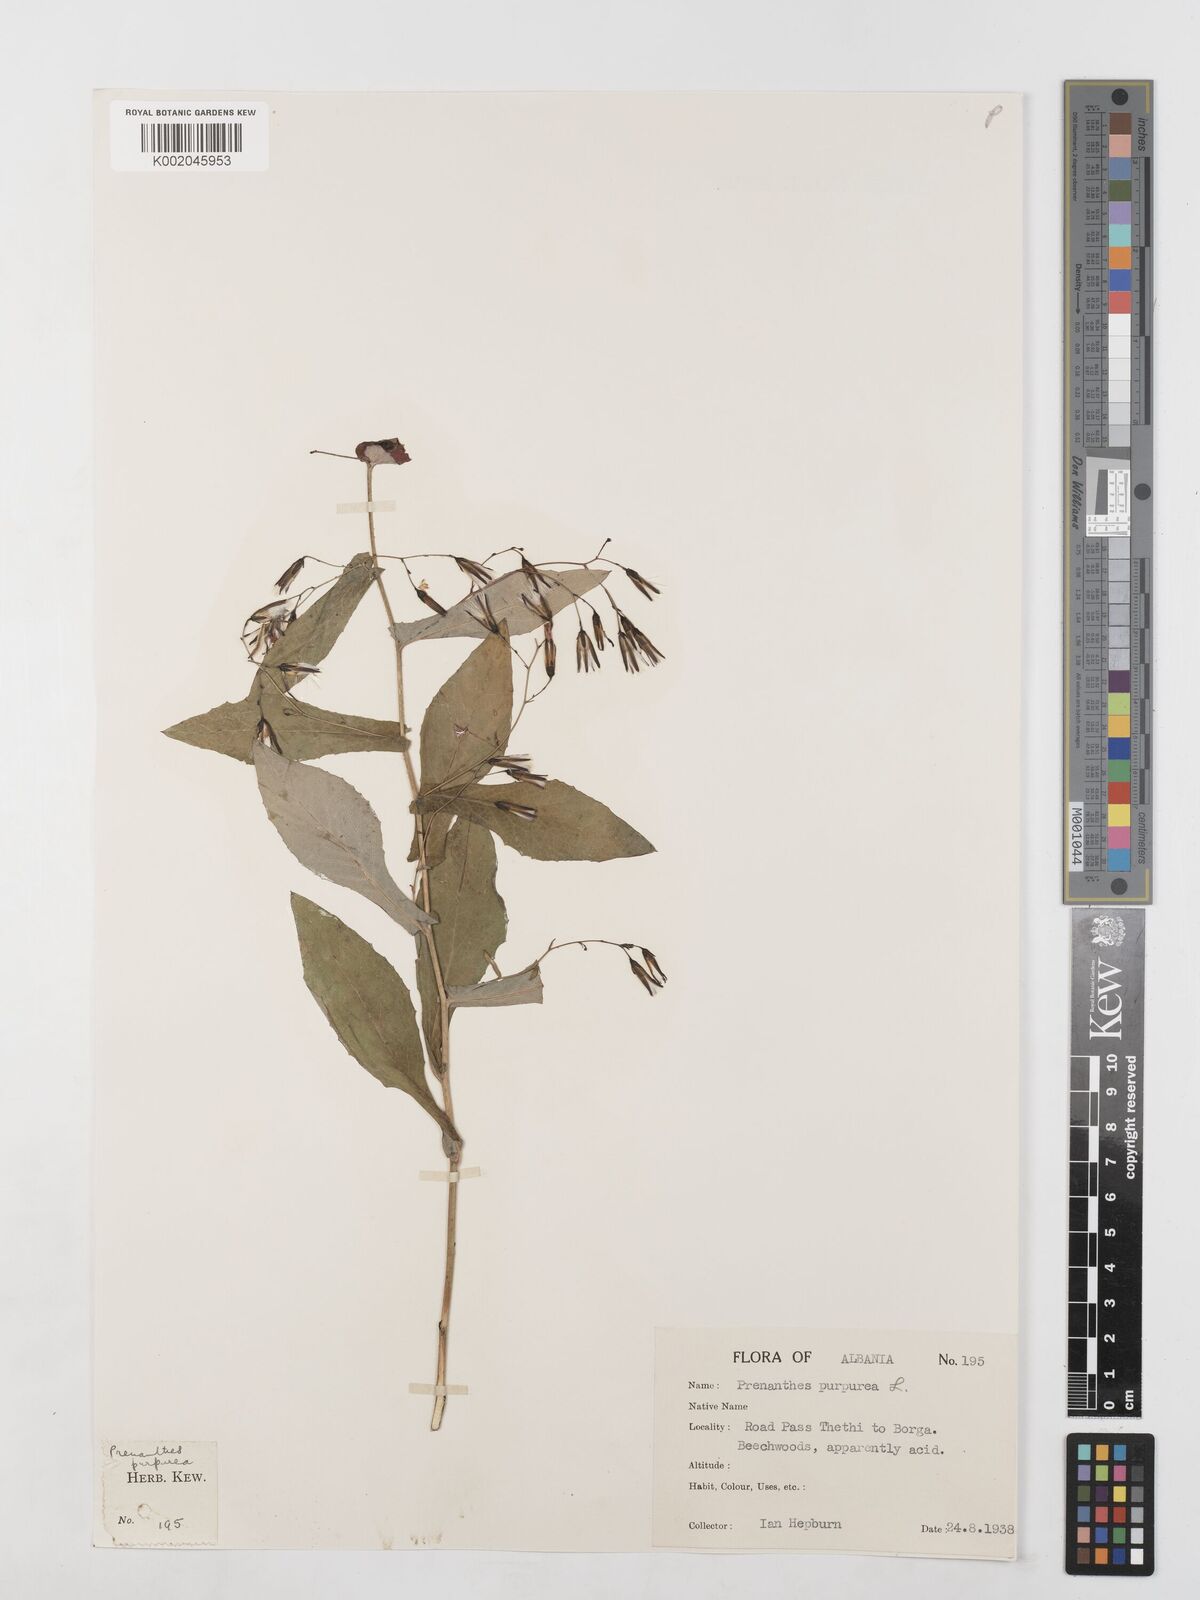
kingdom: Plantae
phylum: Tracheophyta
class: Magnoliopsida
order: Asterales
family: Asteraceae
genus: Prenanthes
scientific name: Prenanthes purpurea
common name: Purple lettuce
